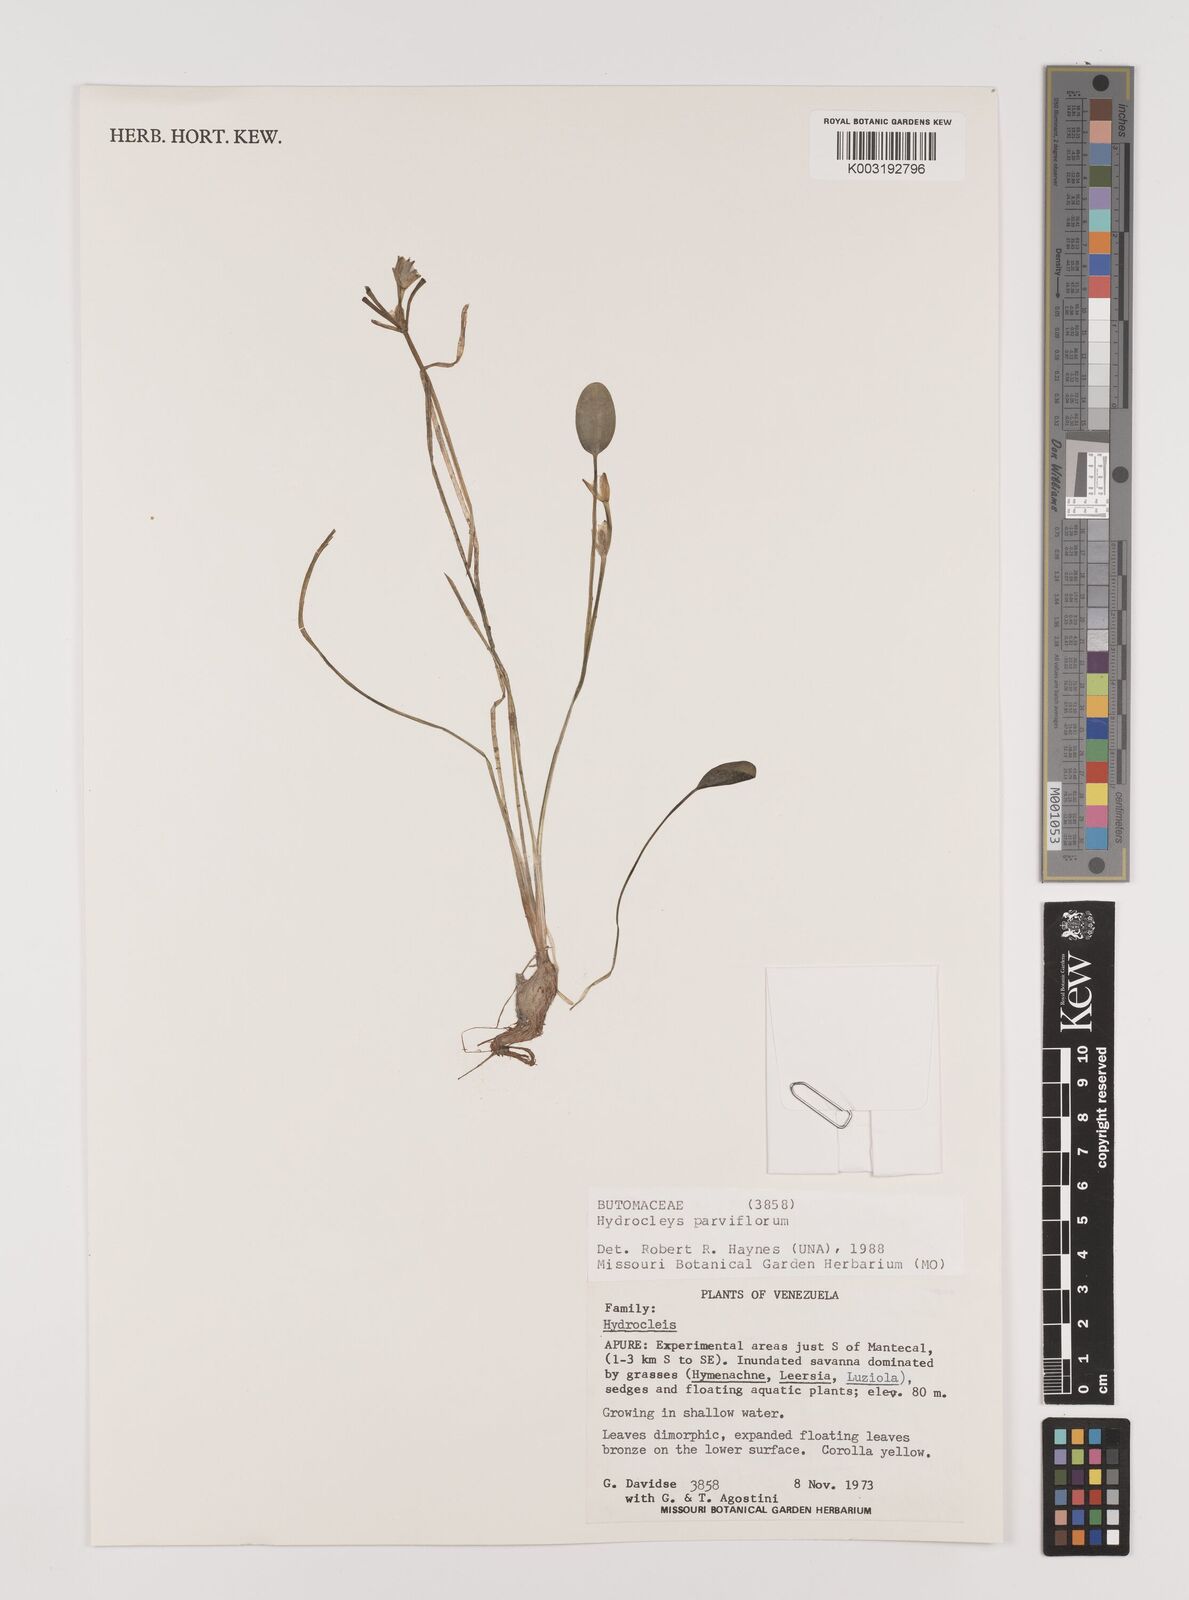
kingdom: Plantae
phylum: Tracheophyta
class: Liliopsida
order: Alismatales
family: Alismataceae
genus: Hydrocleys
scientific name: Hydrocleys parviflora
